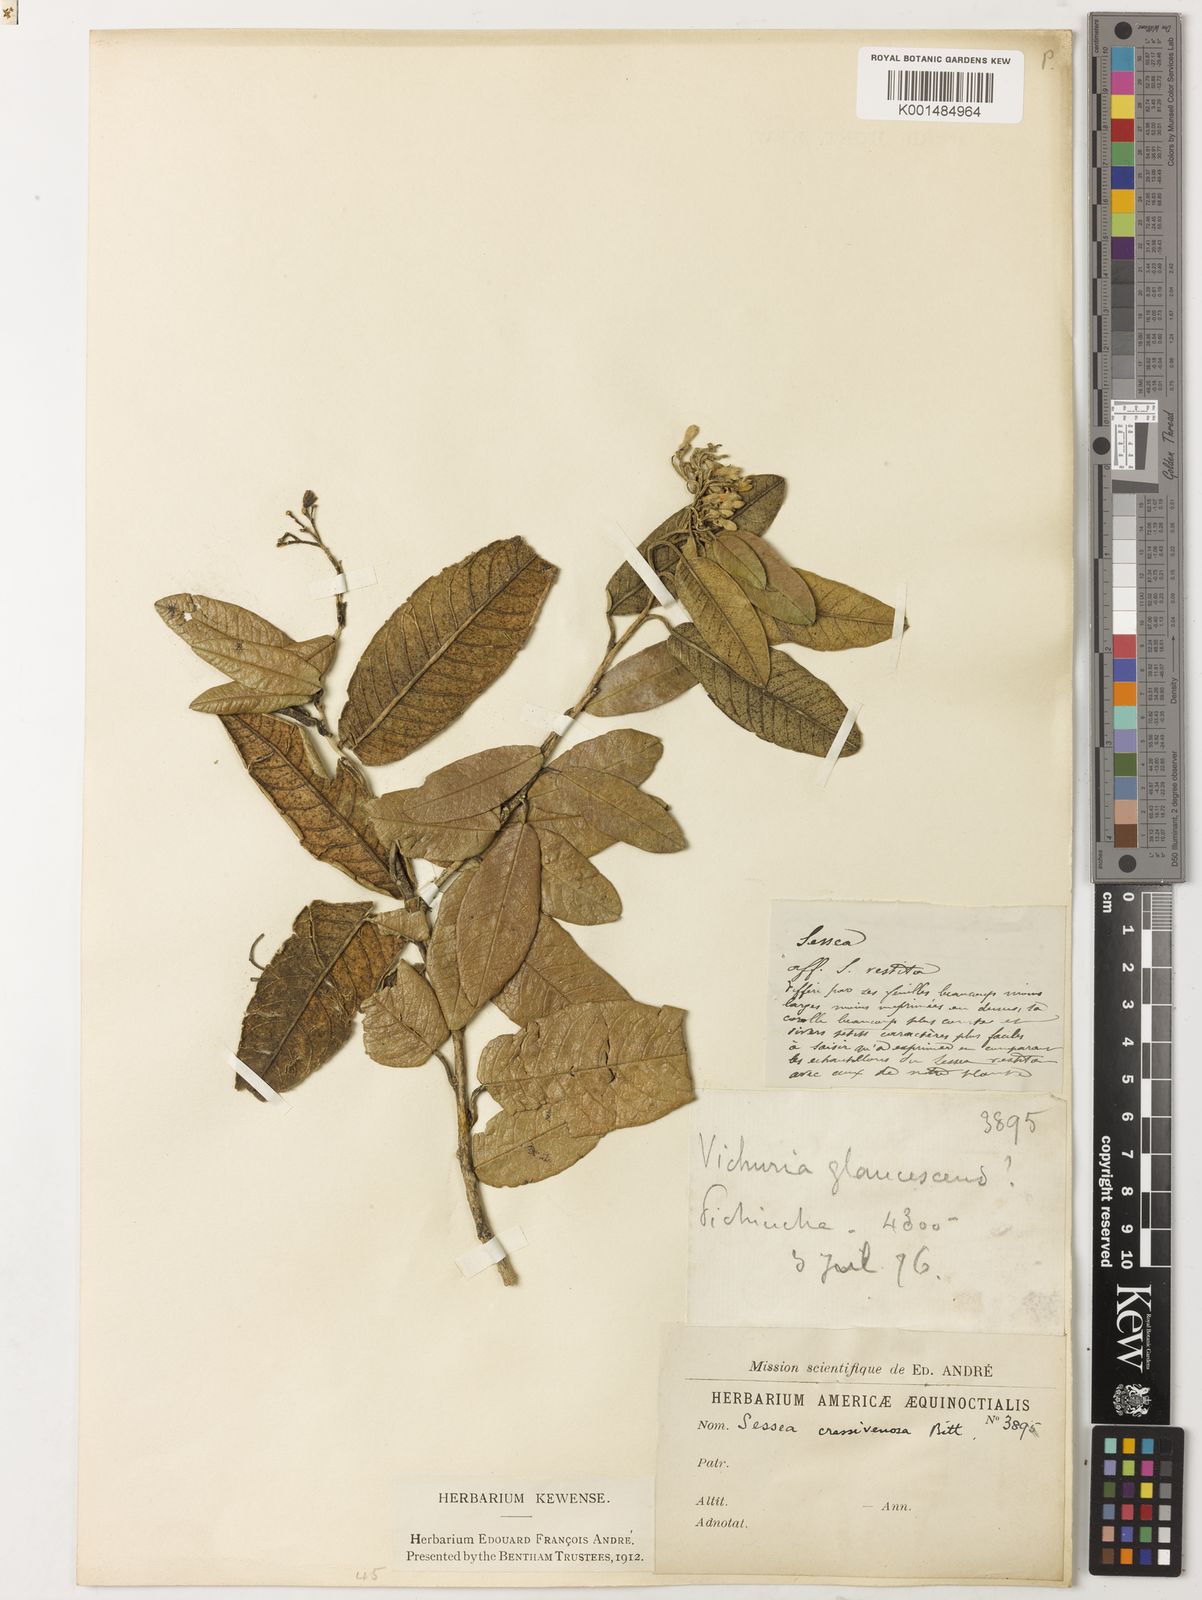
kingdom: Plantae
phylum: Tracheophyta
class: Magnoliopsida
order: Solanales
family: Solanaceae
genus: Sessea
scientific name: Sessea crassivenosa
